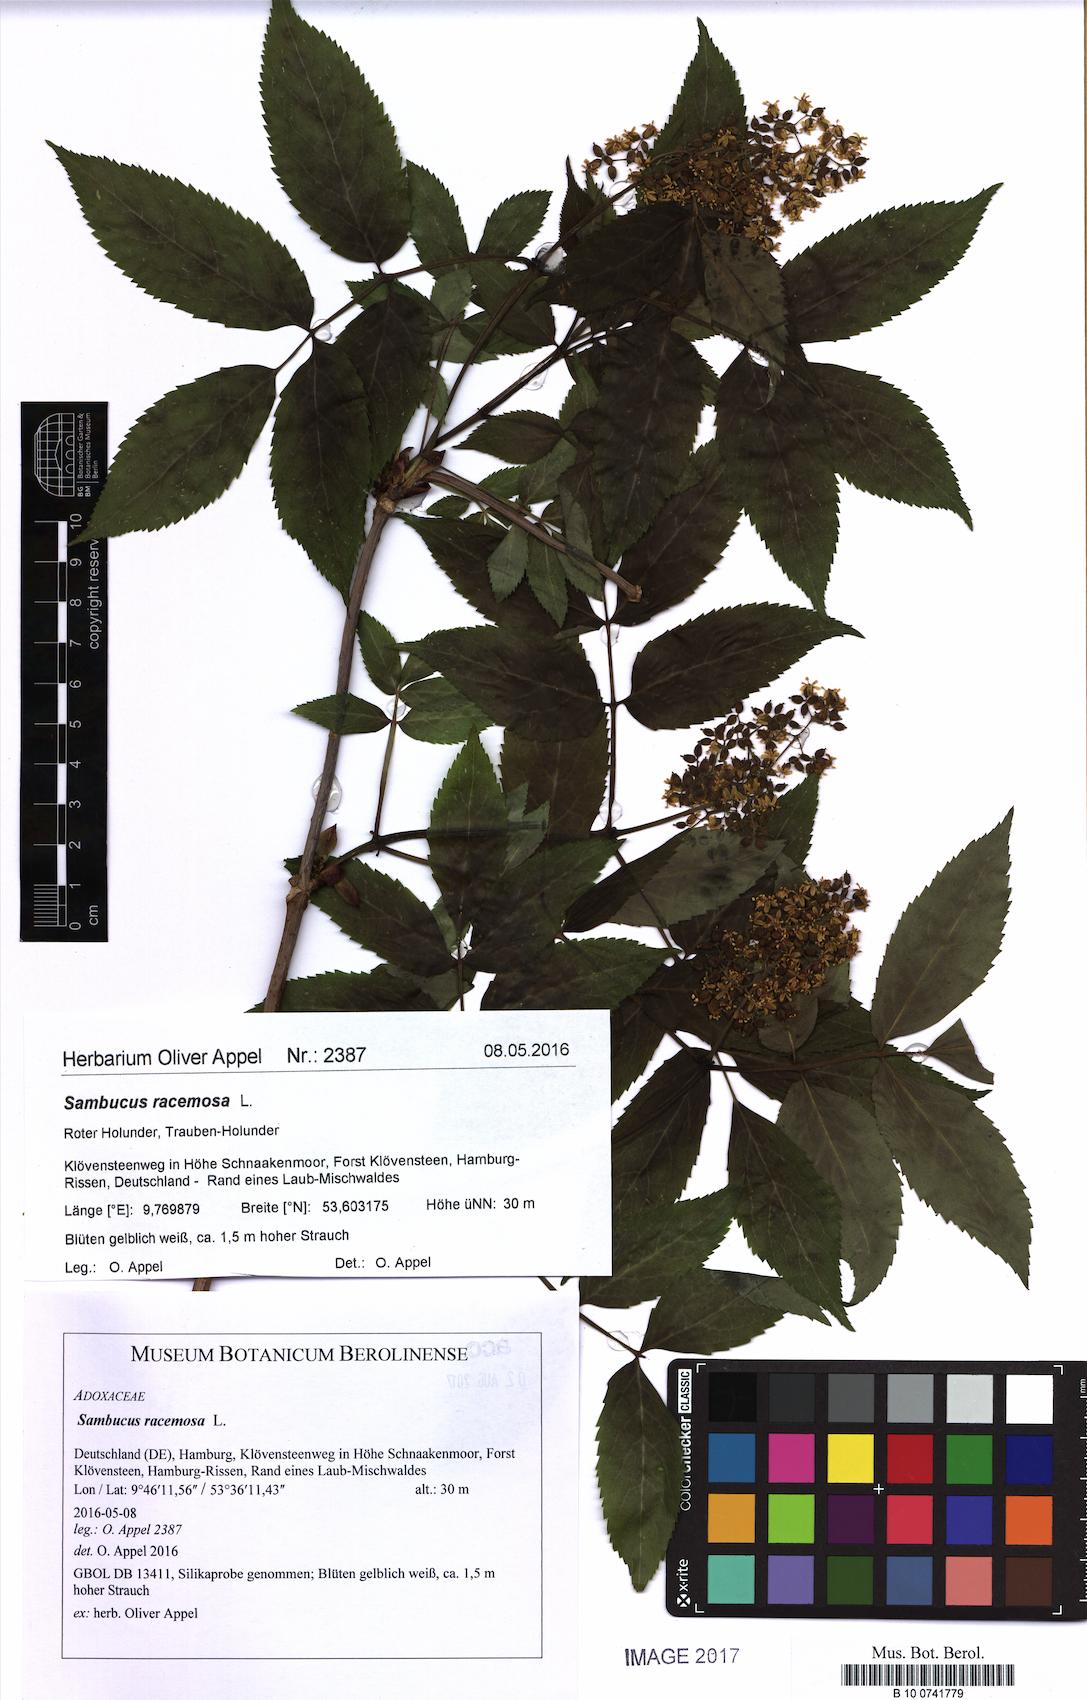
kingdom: Plantae
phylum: Tracheophyta
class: Magnoliopsida
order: Dipsacales
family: Viburnaceae
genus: Sambucus
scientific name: Sambucus racemosa
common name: Red-berried elder
